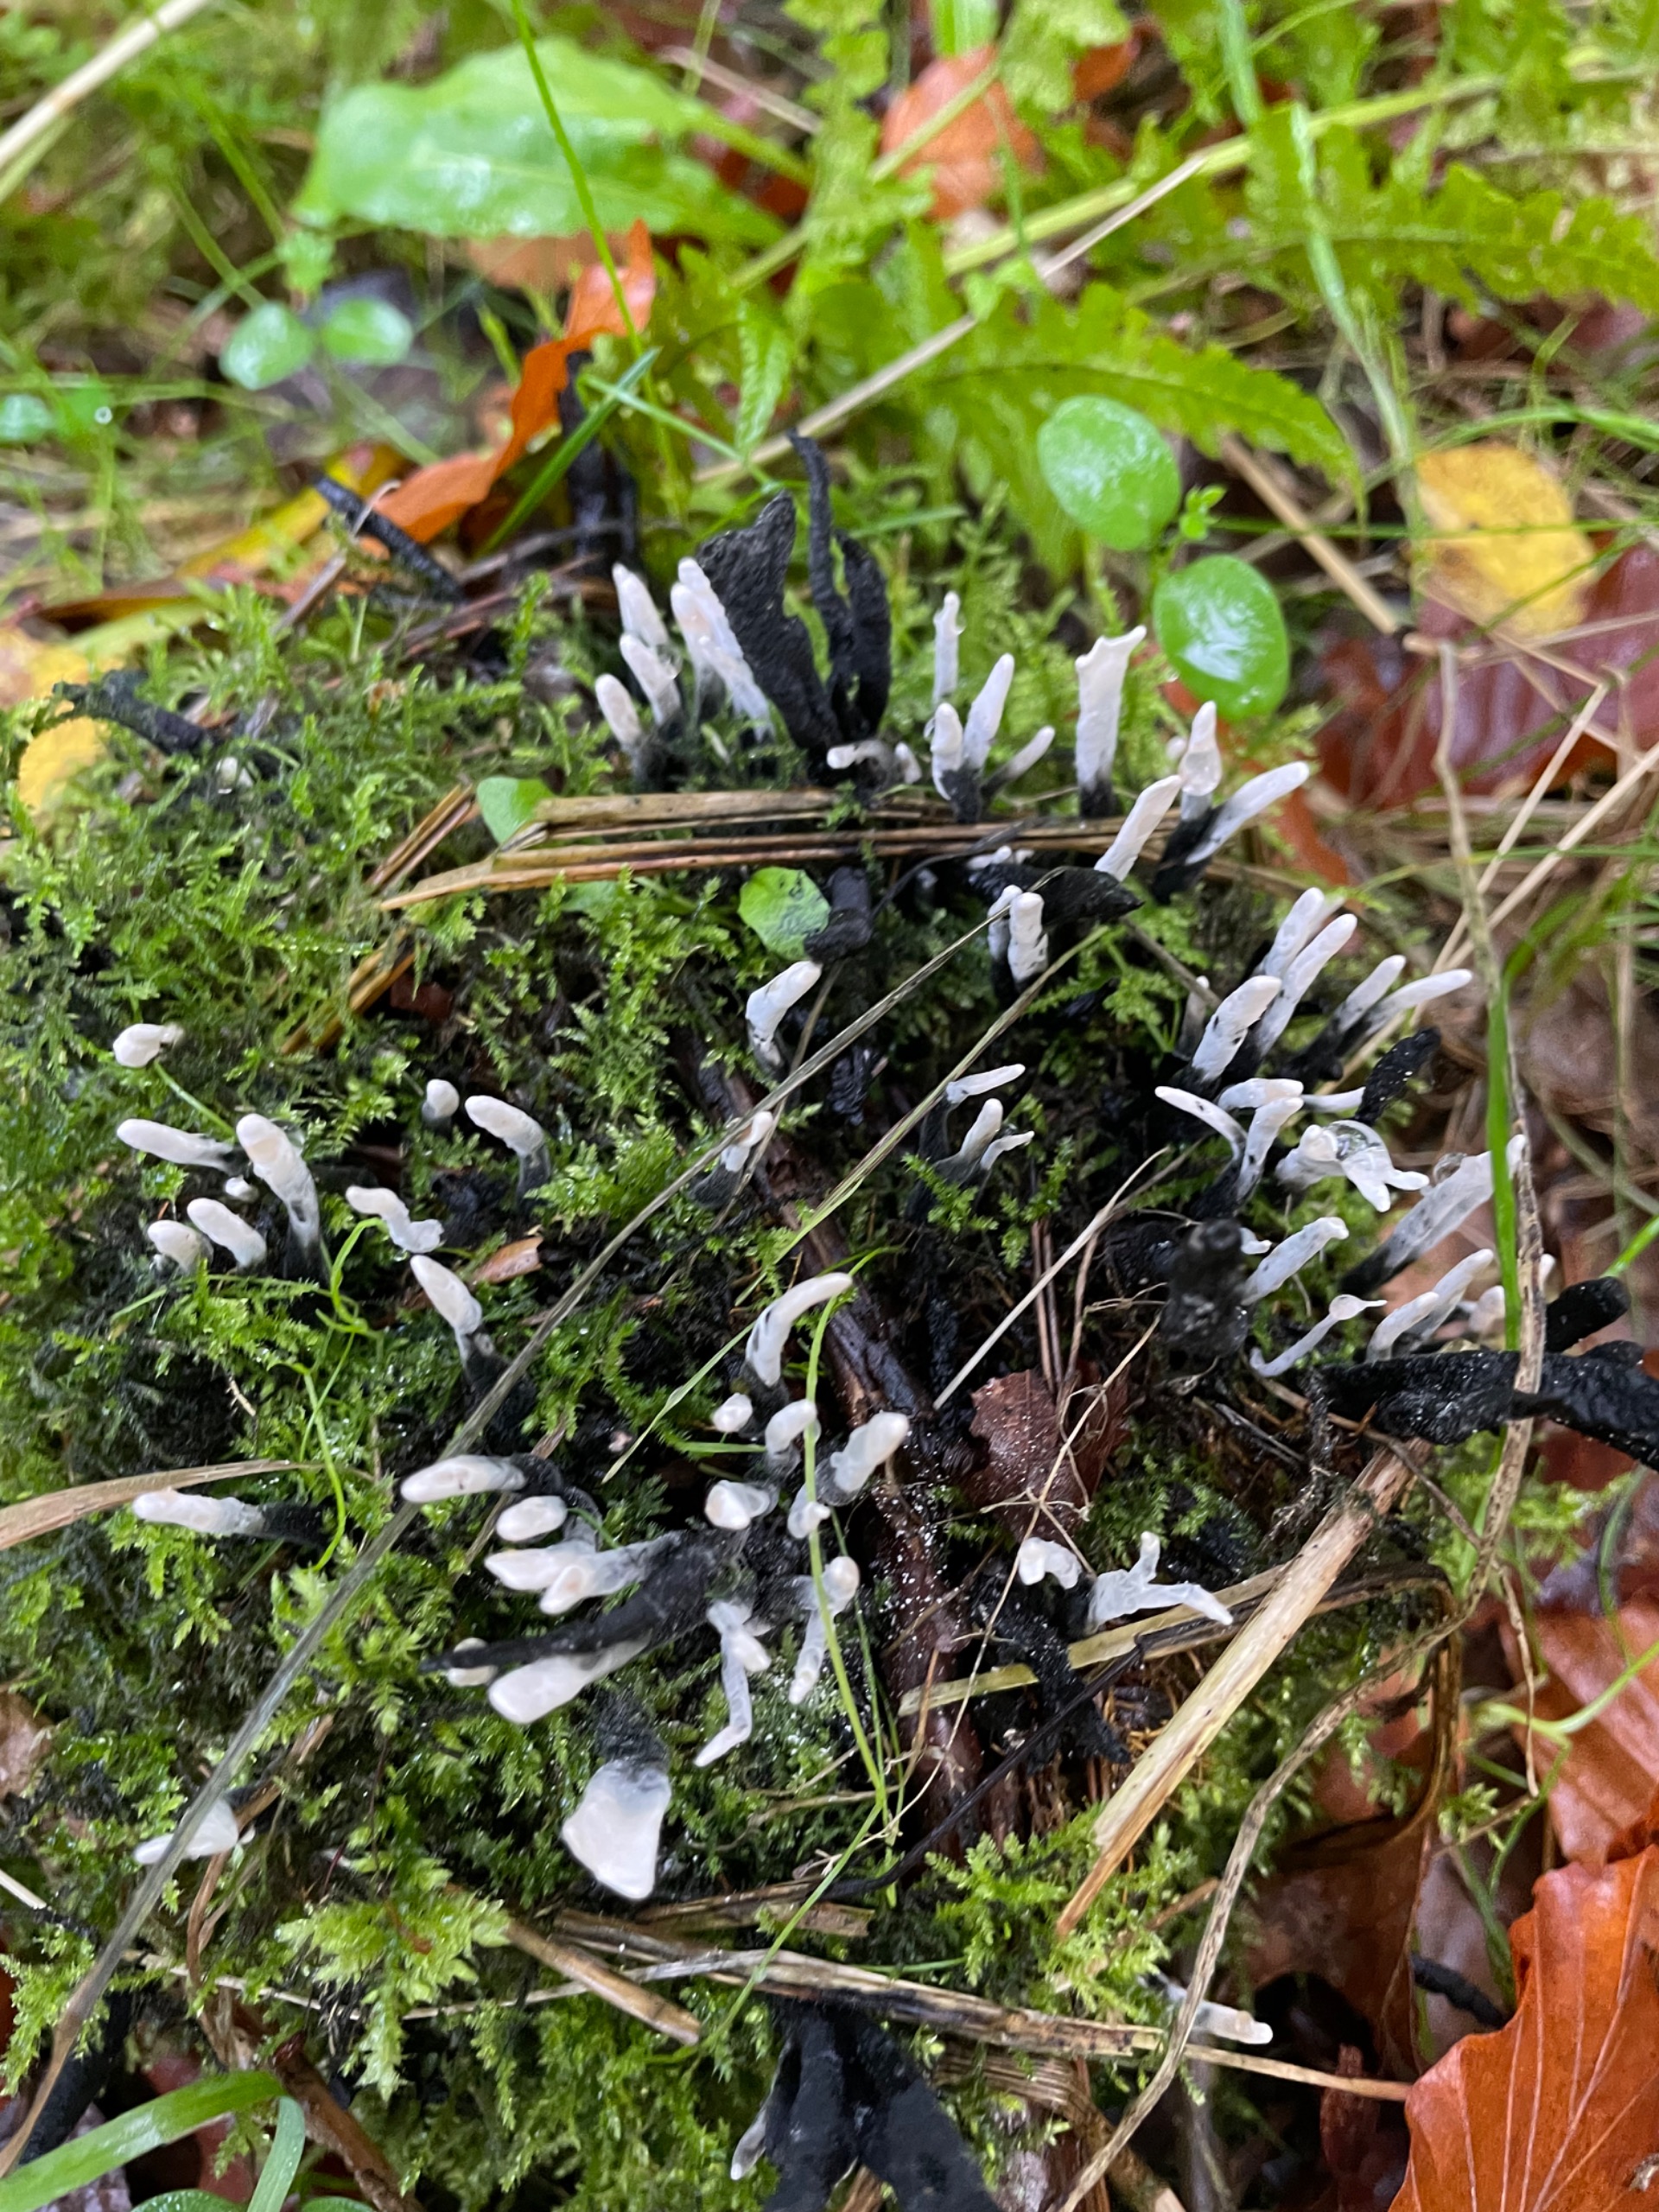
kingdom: Fungi
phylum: Ascomycota
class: Sordariomycetes
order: Xylariales
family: Xylariaceae
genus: Xylaria
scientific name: Xylaria hypoxylon
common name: Grenet stødsvamp
